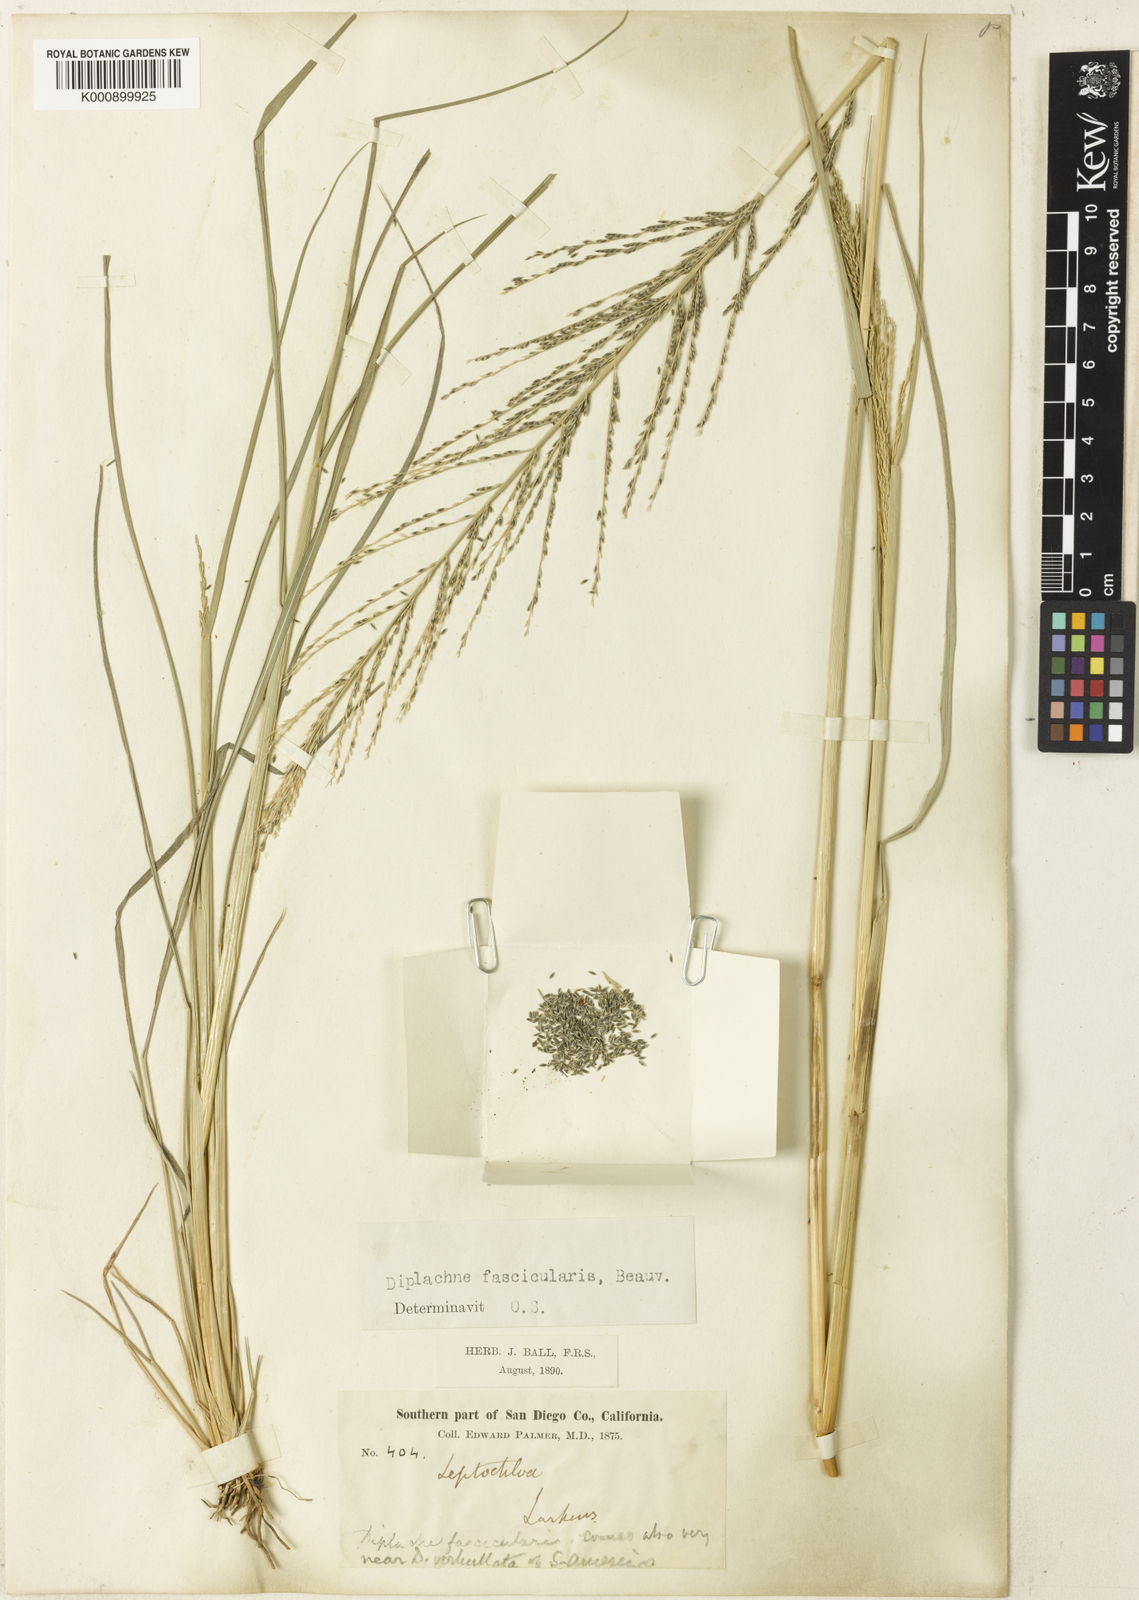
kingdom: Plantae
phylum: Tracheophyta
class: Liliopsida
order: Poales
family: Poaceae
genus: Diplachne
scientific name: Diplachne fusca
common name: Brown beetle grass
